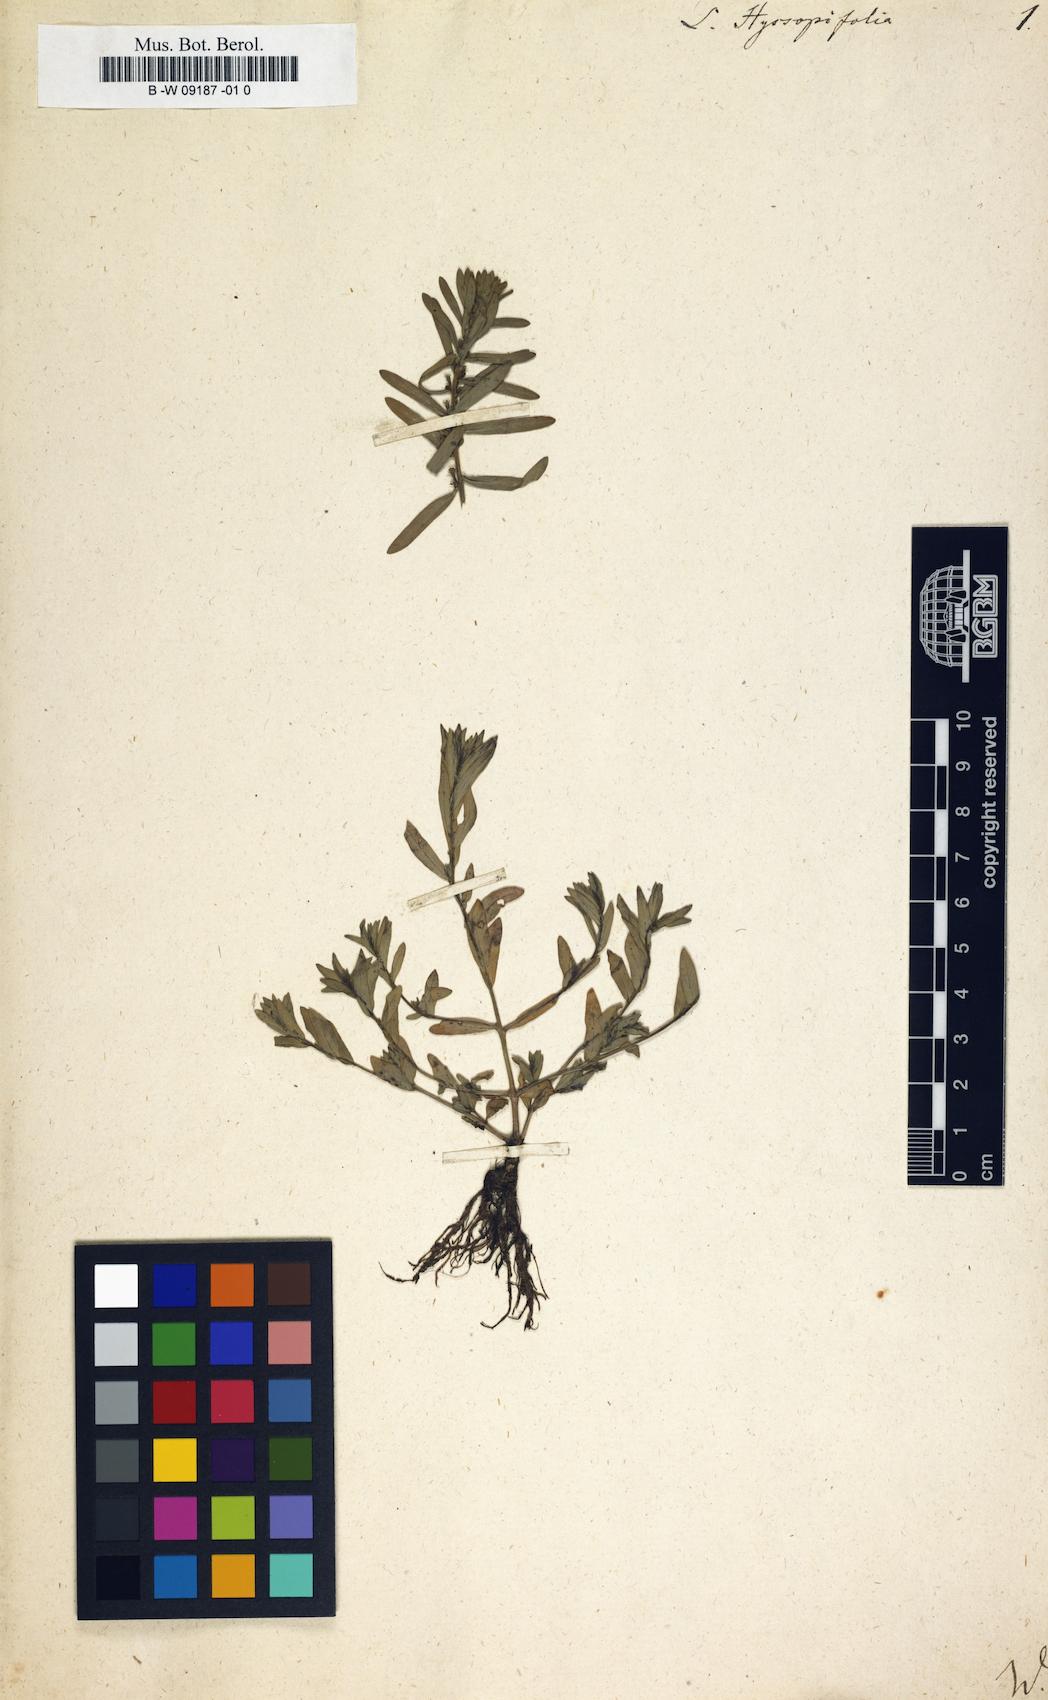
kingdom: Plantae
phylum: Tracheophyta
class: Magnoliopsida
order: Myrtales
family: Lythraceae
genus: Lythrum
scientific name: Lythrum hyssopifolia
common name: Grass-poly
